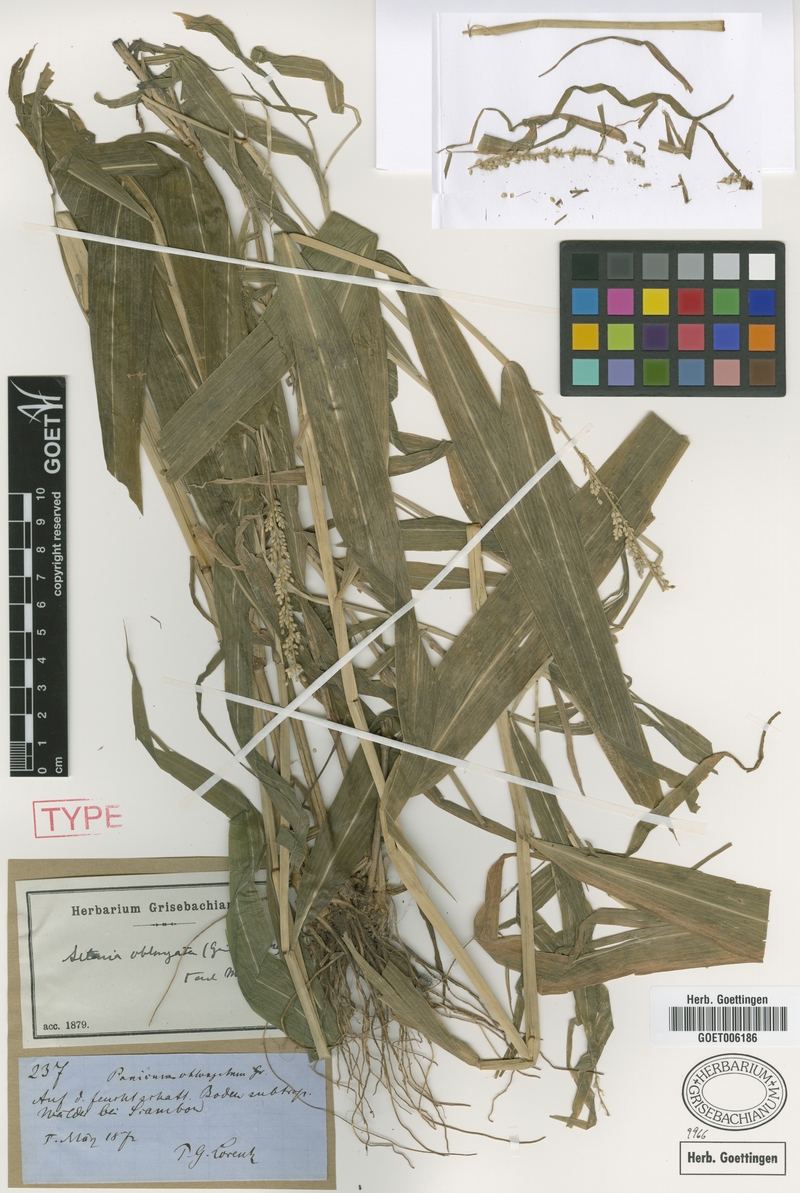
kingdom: Plantae
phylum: Tracheophyta
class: Liliopsida
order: Poales
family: Poaceae
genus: Setaria
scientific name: Setaria oblongata
